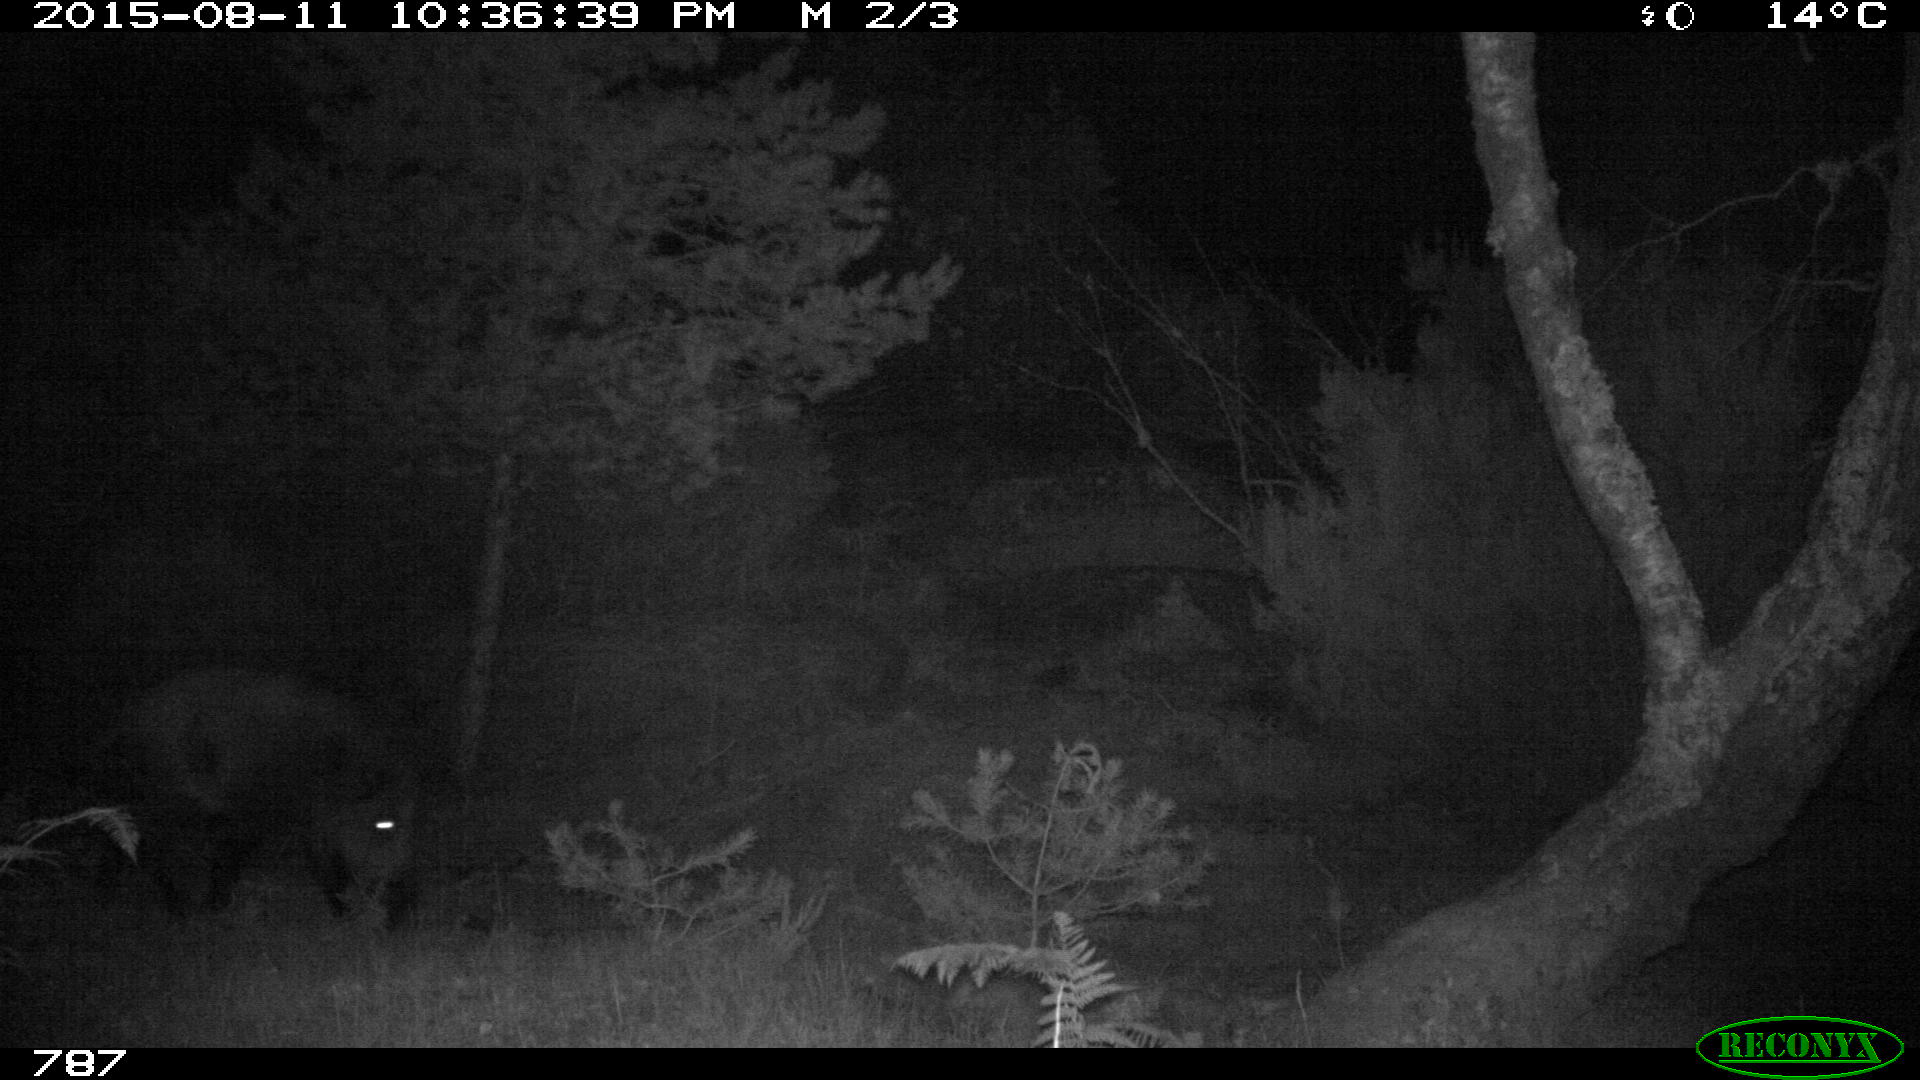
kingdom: Animalia
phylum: Chordata
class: Mammalia
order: Artiodactyla
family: Suidae
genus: Sus
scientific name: Sus scrofa
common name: Wild boar
